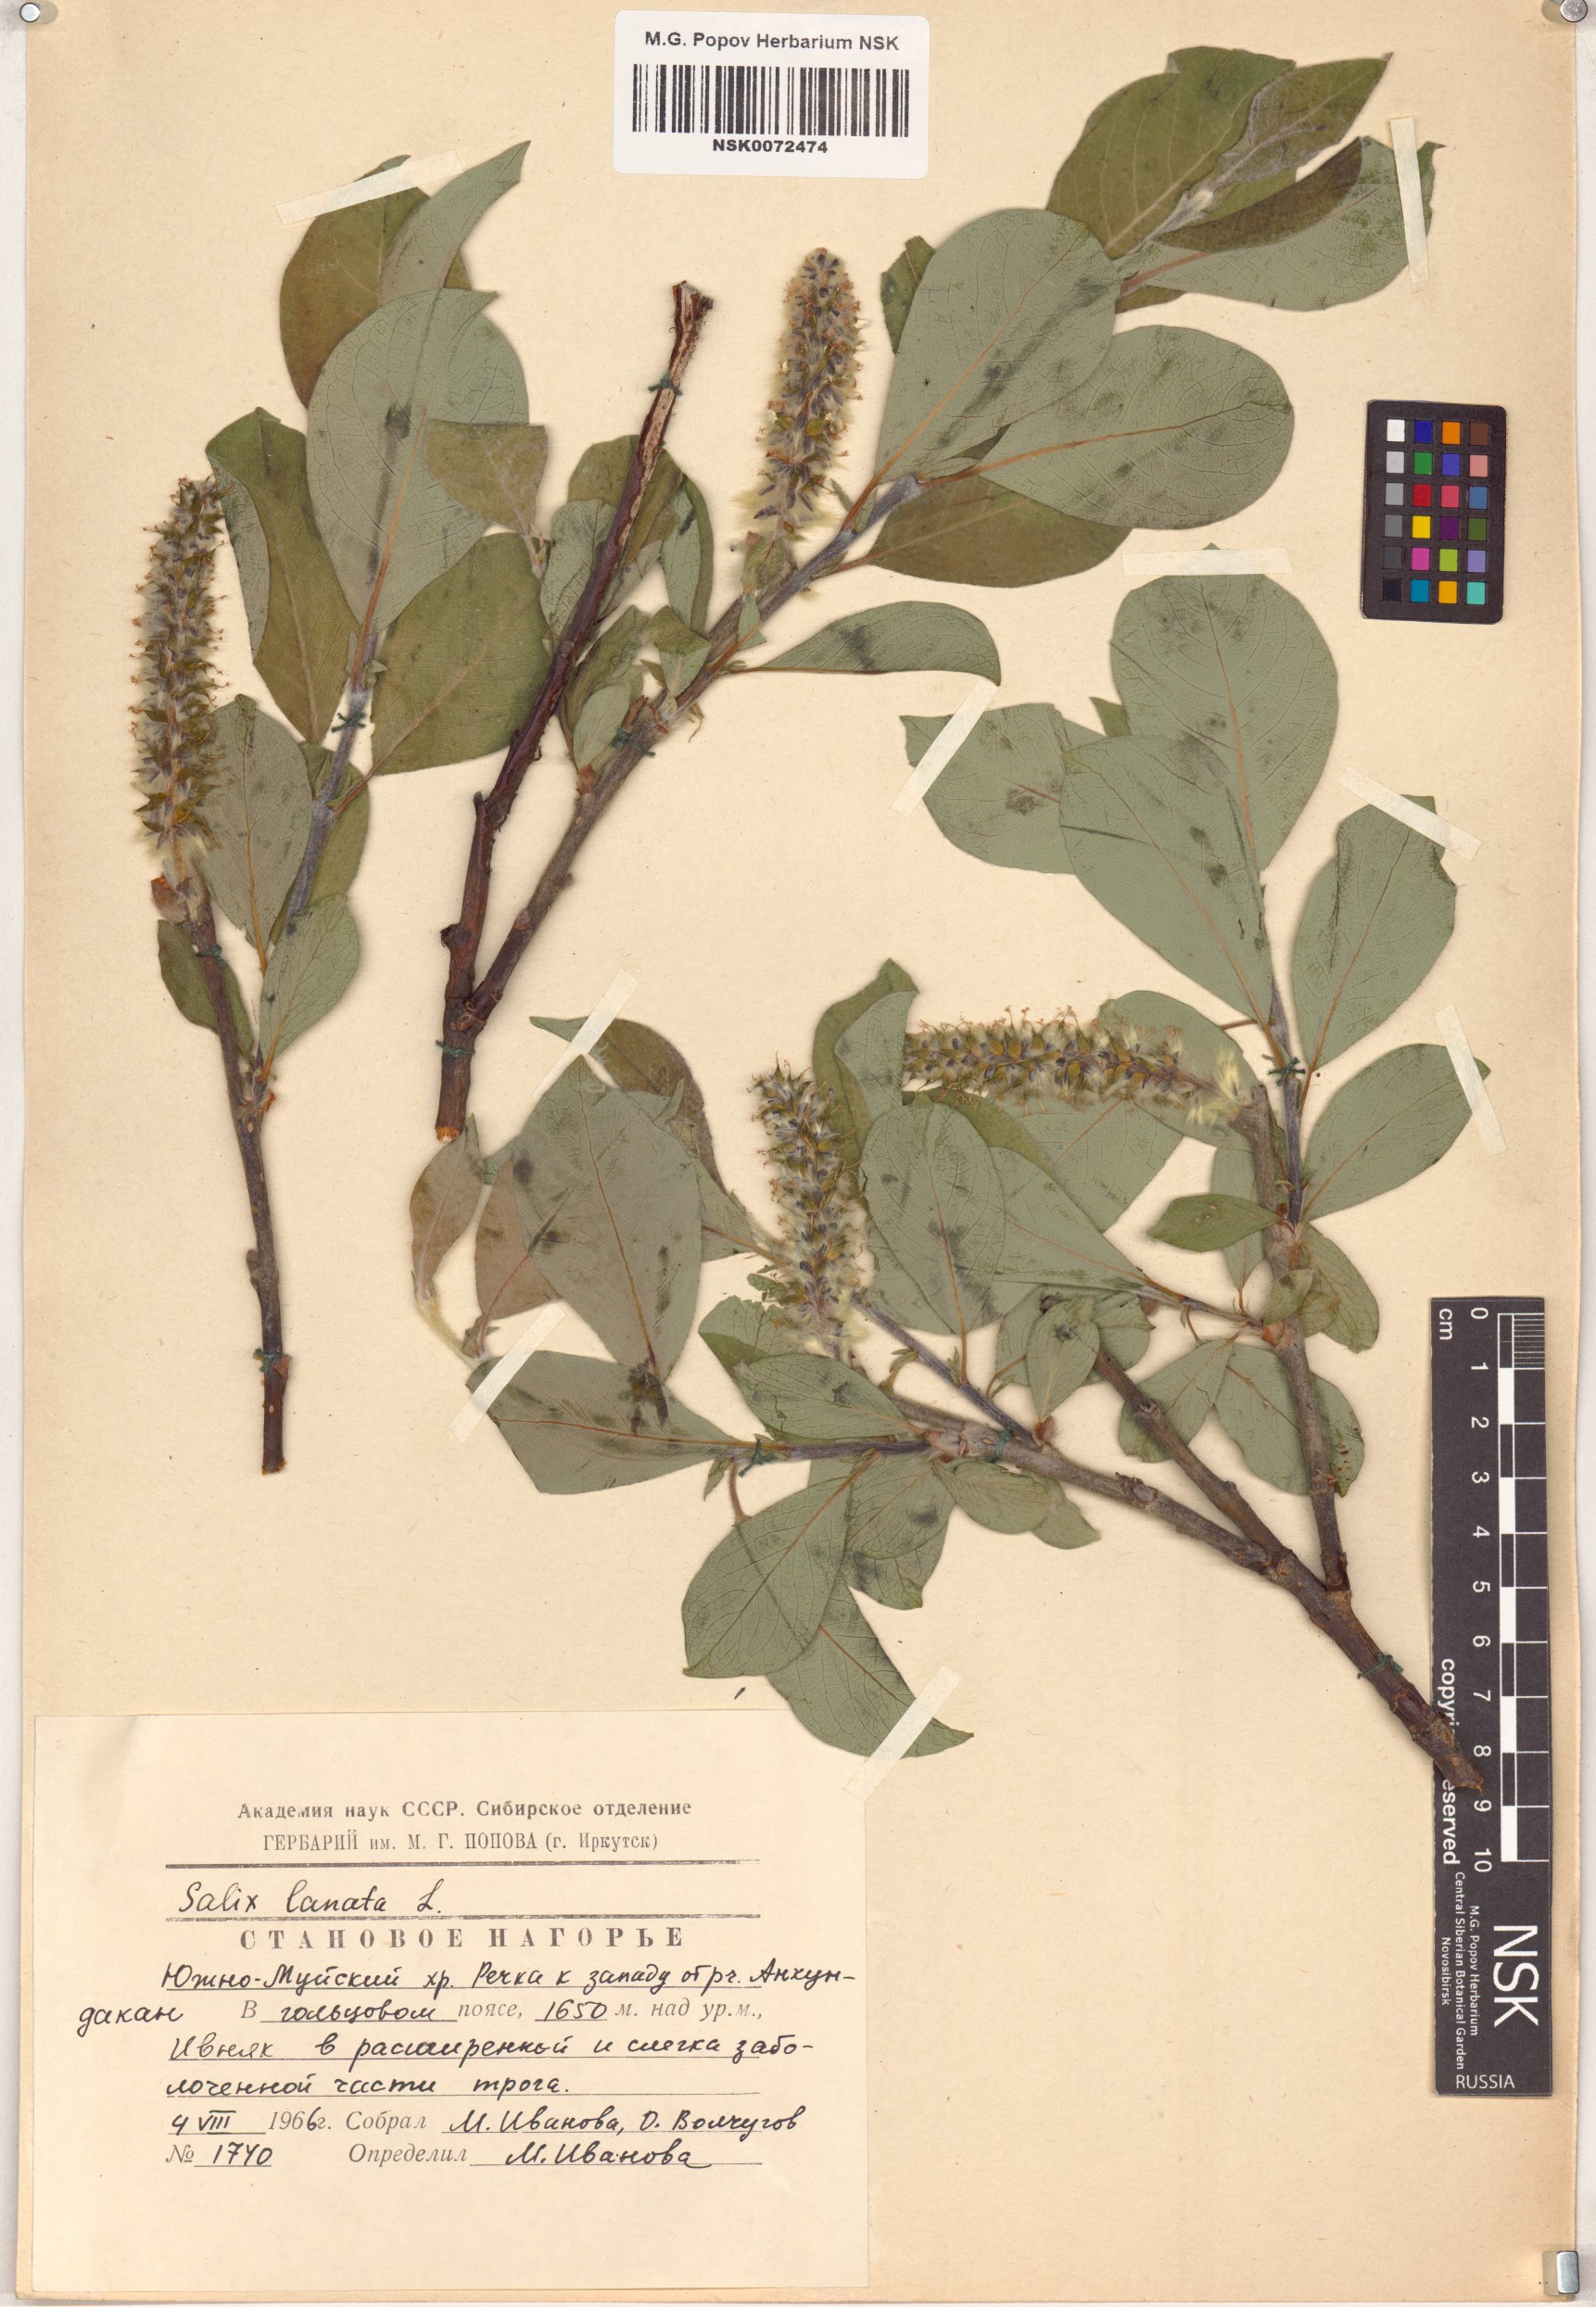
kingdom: Plantae
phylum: Tracheophyta
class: Magnoliopsida
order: Malpighiales
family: Salicaceae
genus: Salix
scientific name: Salix lanata
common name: Woolly willow
